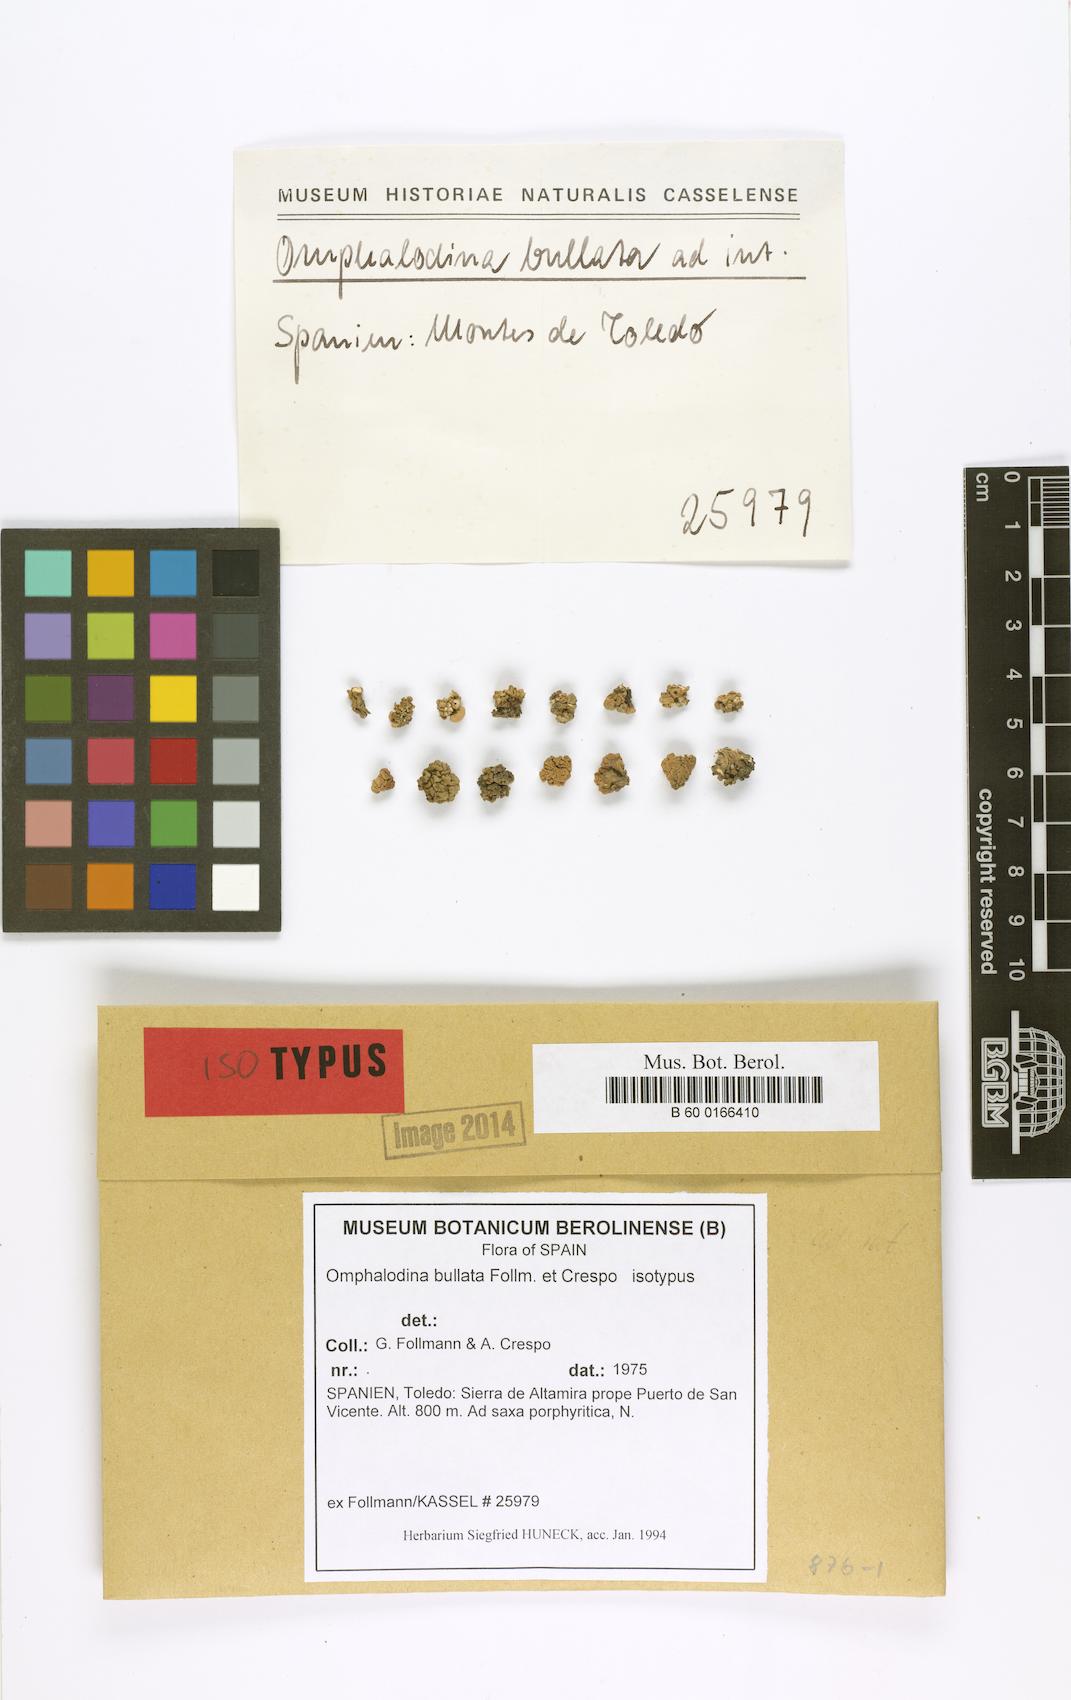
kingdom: Fungi
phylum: Ascomycota
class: Lecanoromycetes
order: Lecanorales
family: Lecanoraceae
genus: Straminella
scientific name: Straminella bullata
